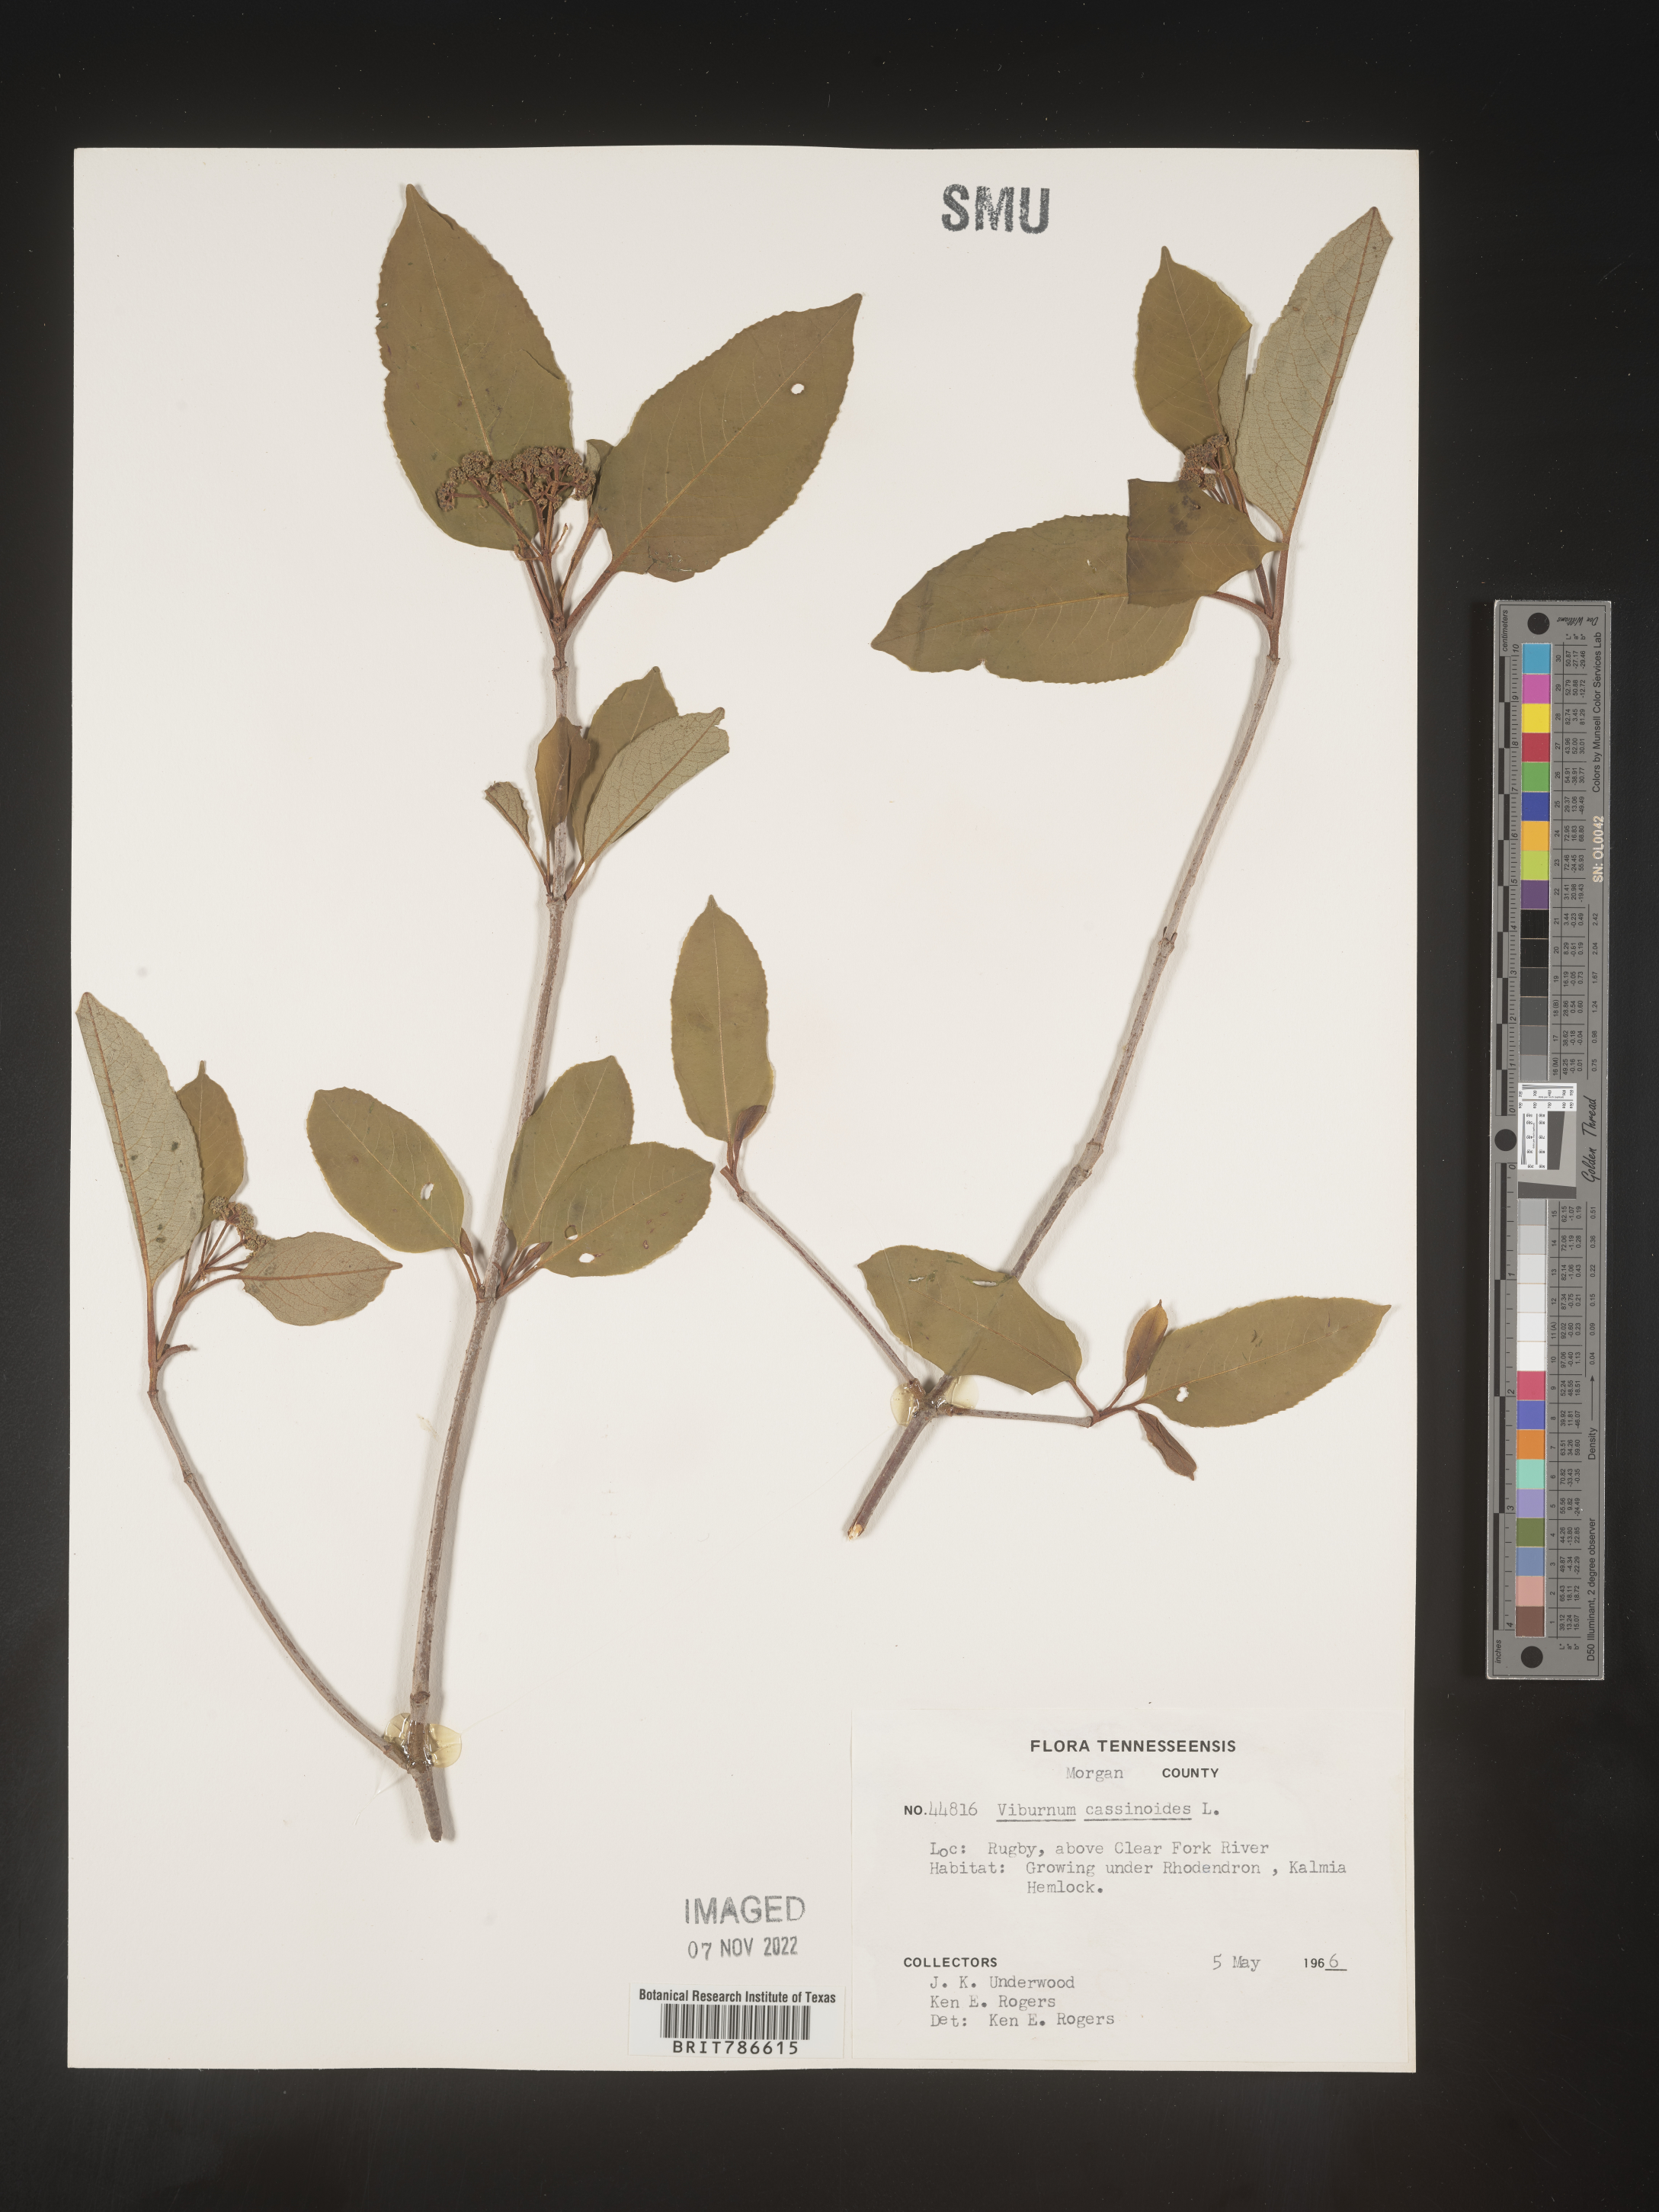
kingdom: Plantae
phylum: Tracheophyta
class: Magnoliopsida
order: Dipsacales
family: Viburnaceae
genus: Viburnum
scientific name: Viburnum cassinoides
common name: Swamp haw
